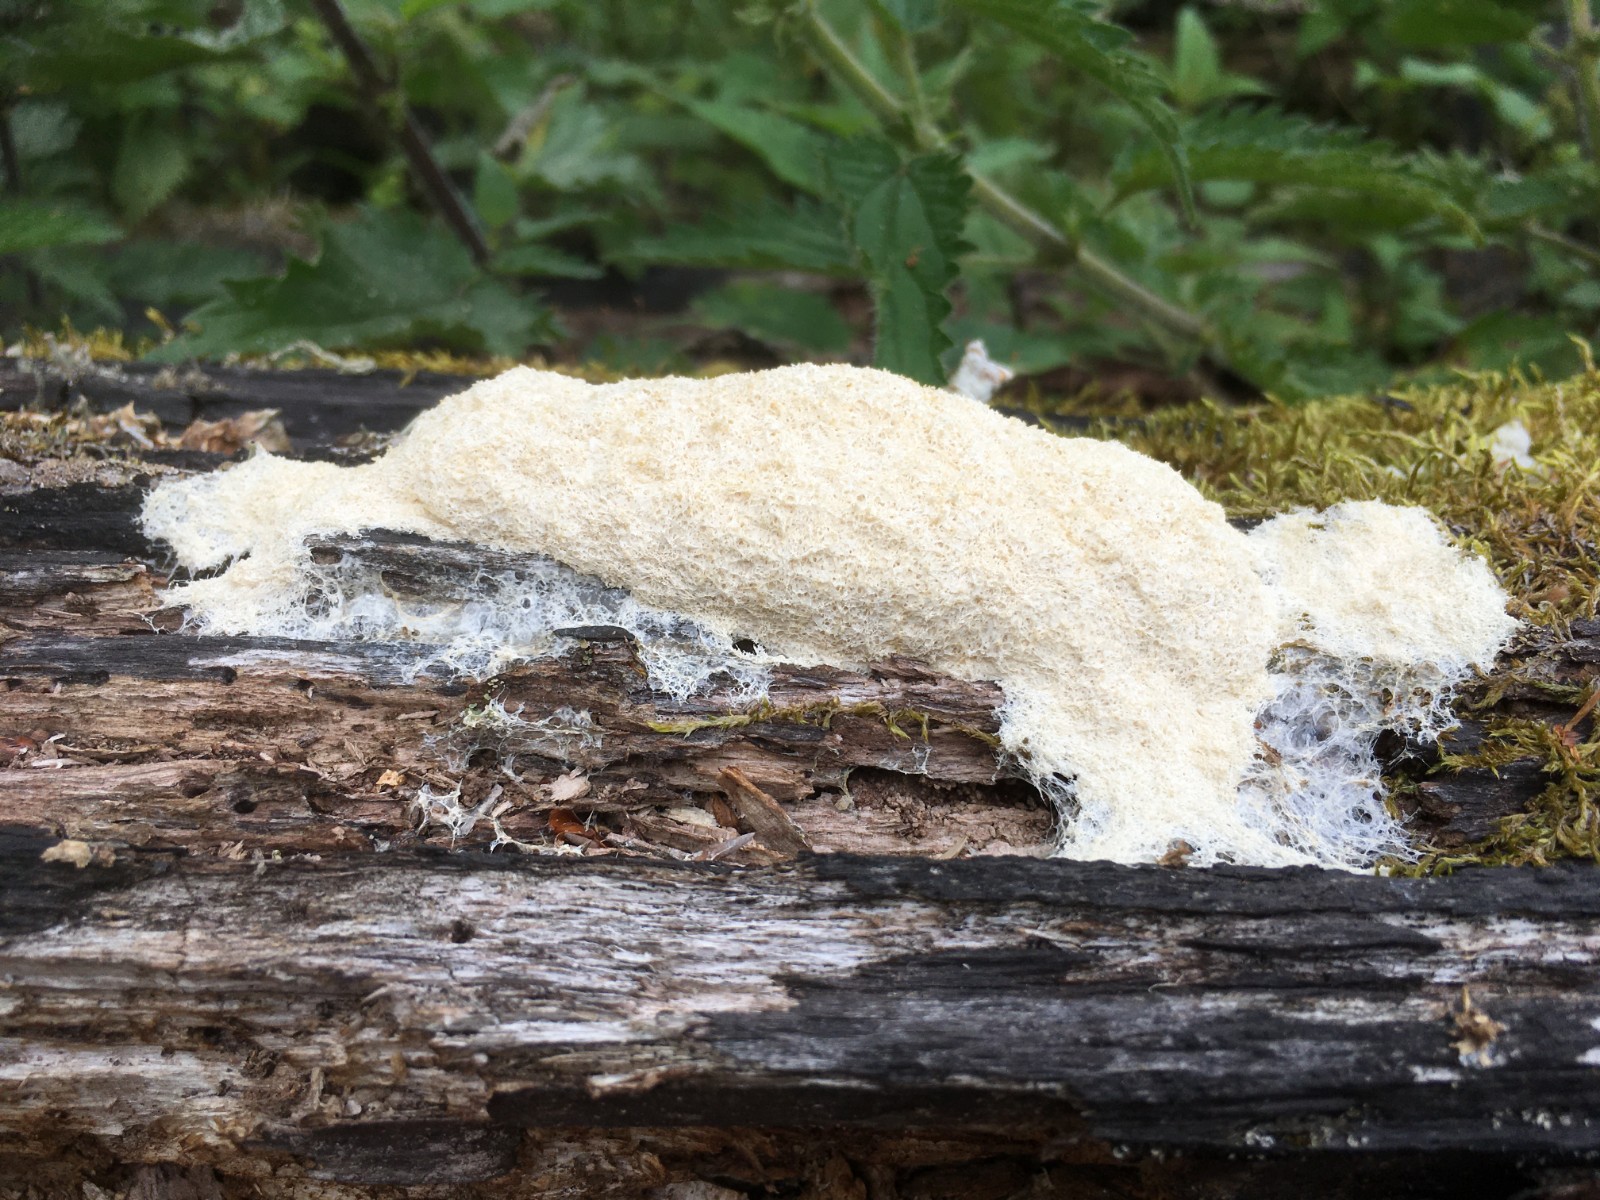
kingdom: Protozoa
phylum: Mycetozoa
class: Myxomycetes
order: Physarales
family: Physaraceae
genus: Fuligo
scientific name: Fuligo septica
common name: Dog vomit slime mold
